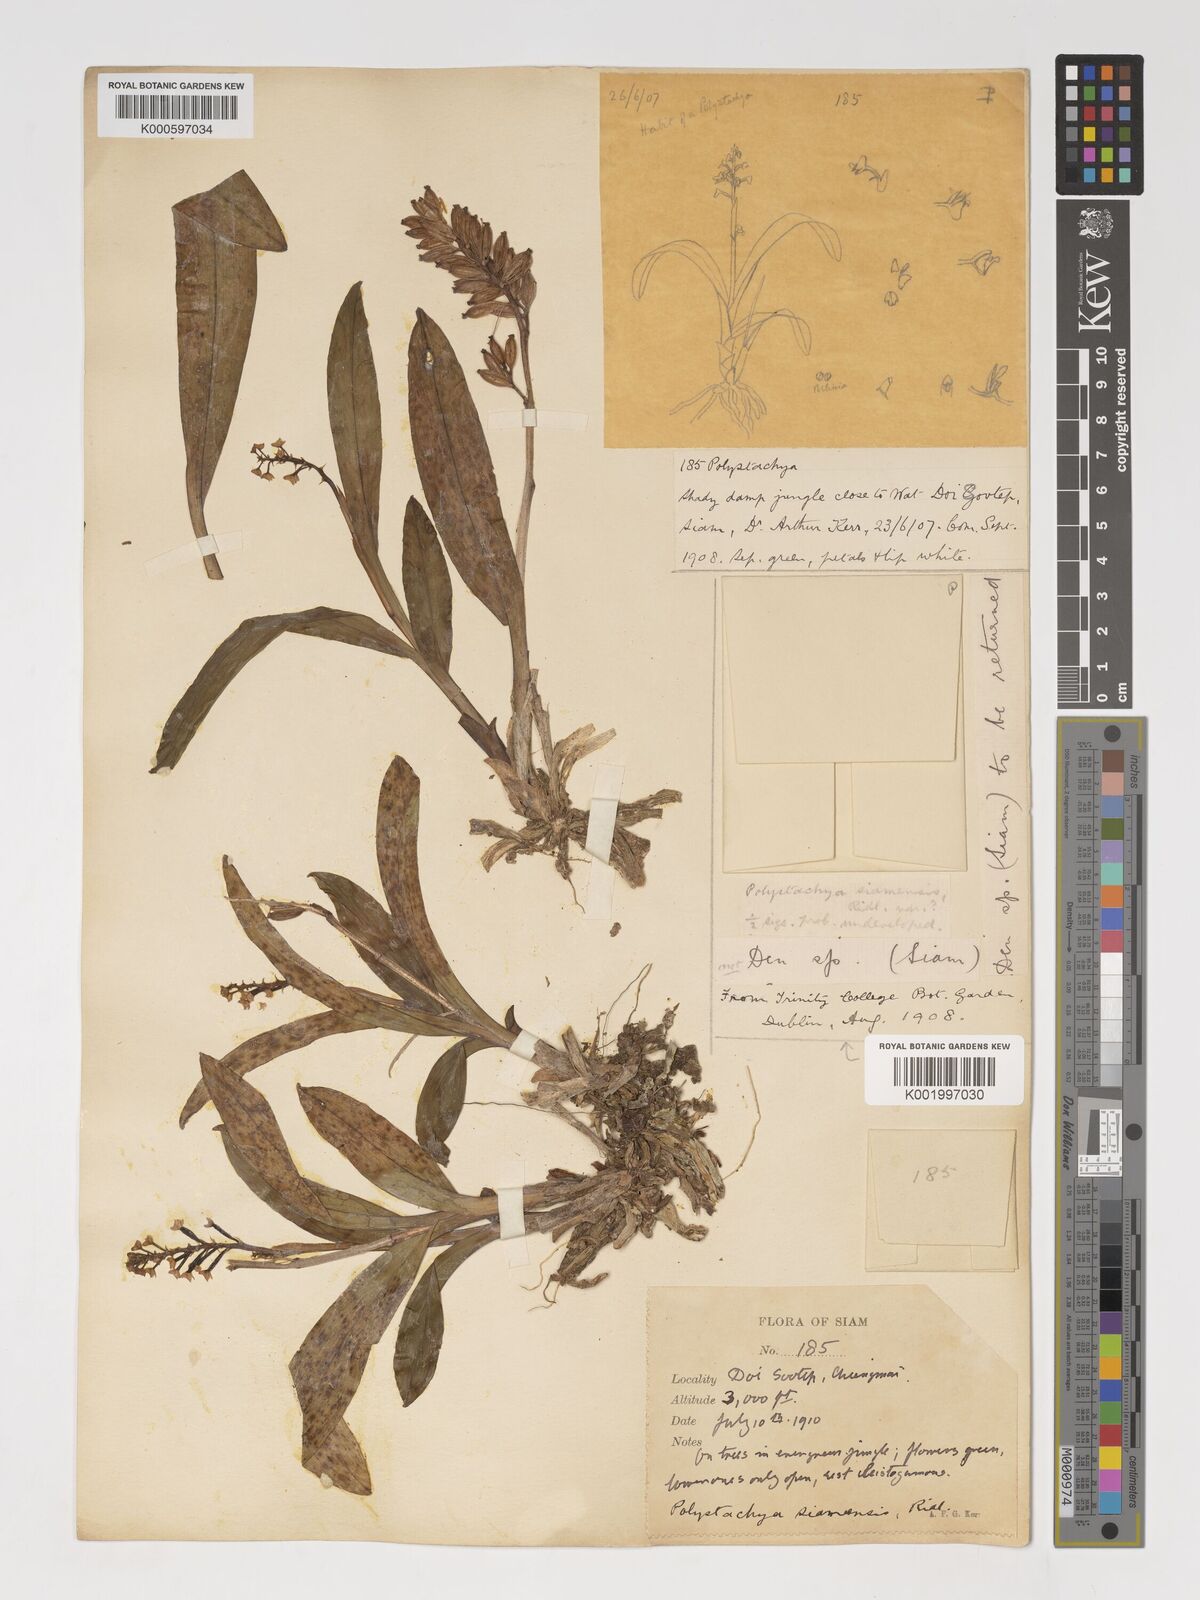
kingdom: Plantae
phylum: Tracheophyta
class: Liliopsida
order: Asparagales
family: Orchidaceae
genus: Polystachya
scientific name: Polystachya concreta
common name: Greater yellowspike orchid
